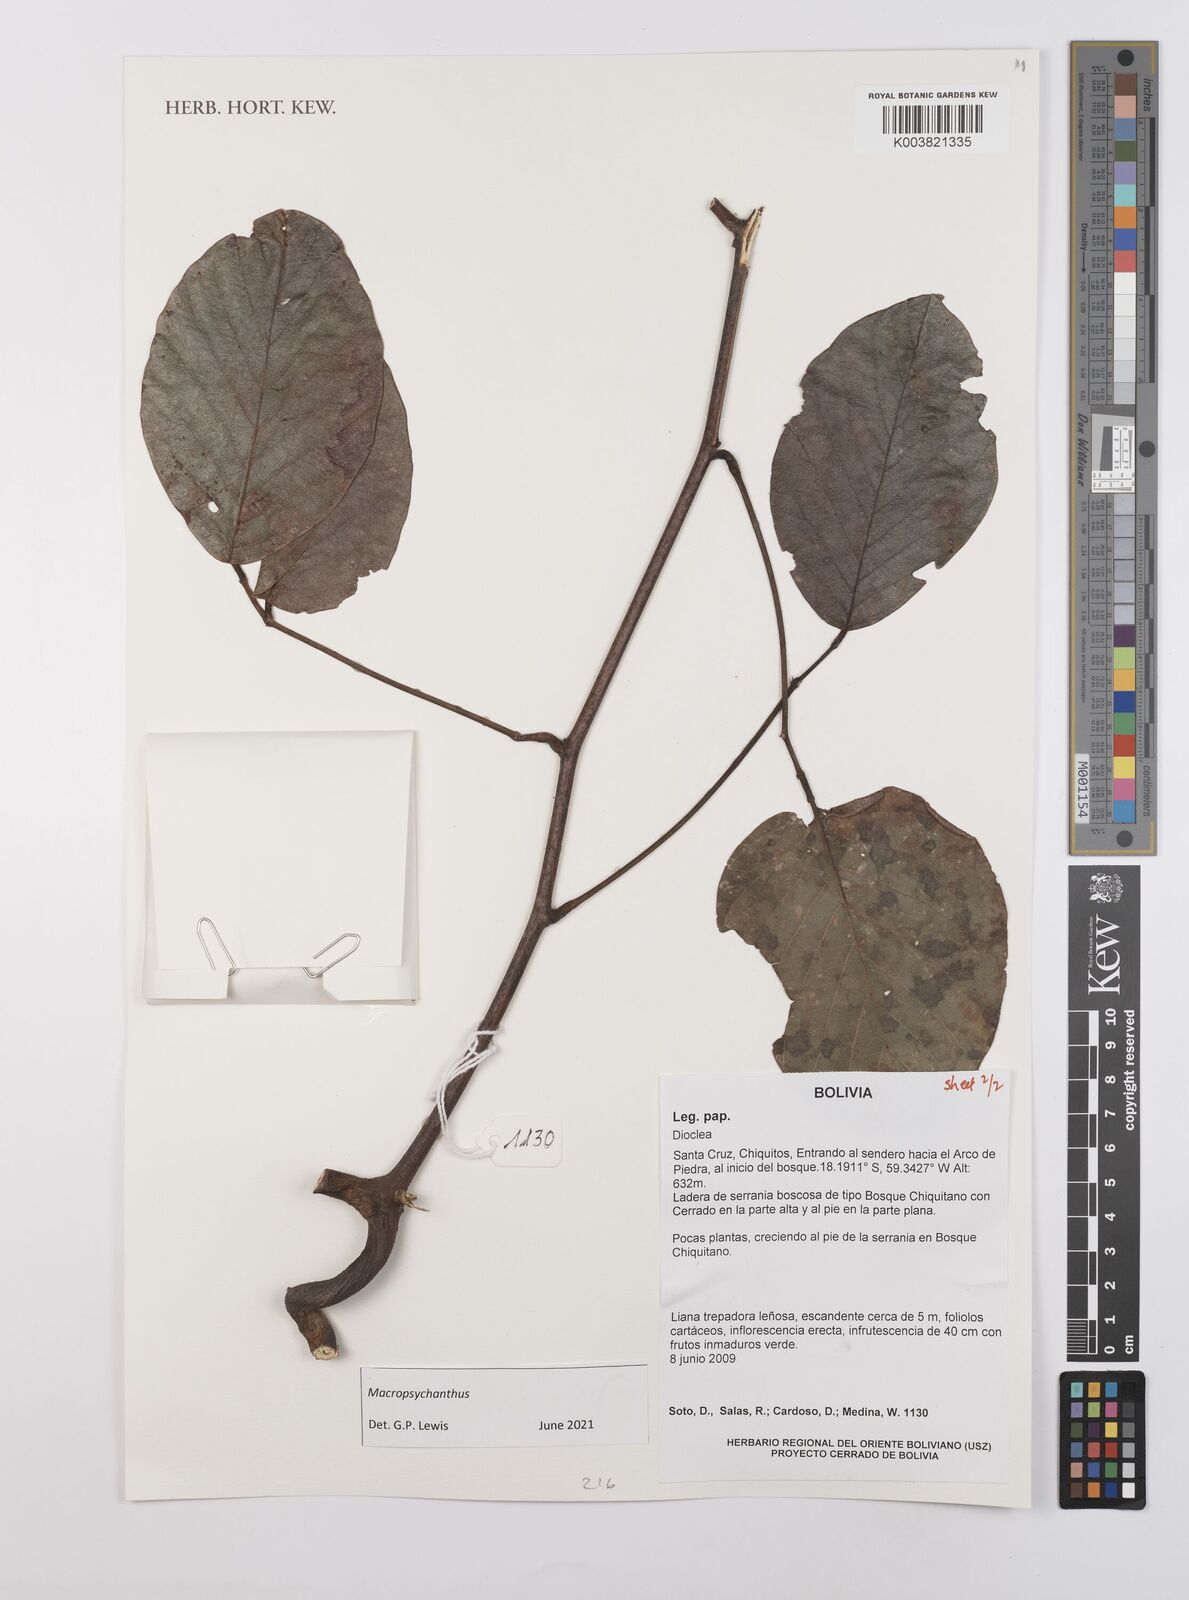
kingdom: Plantae
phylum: Tracheophyta
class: Magnoliopsida
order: Fabales
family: Fabaceae
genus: Macropsychanthus
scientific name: Macropsychanthus
